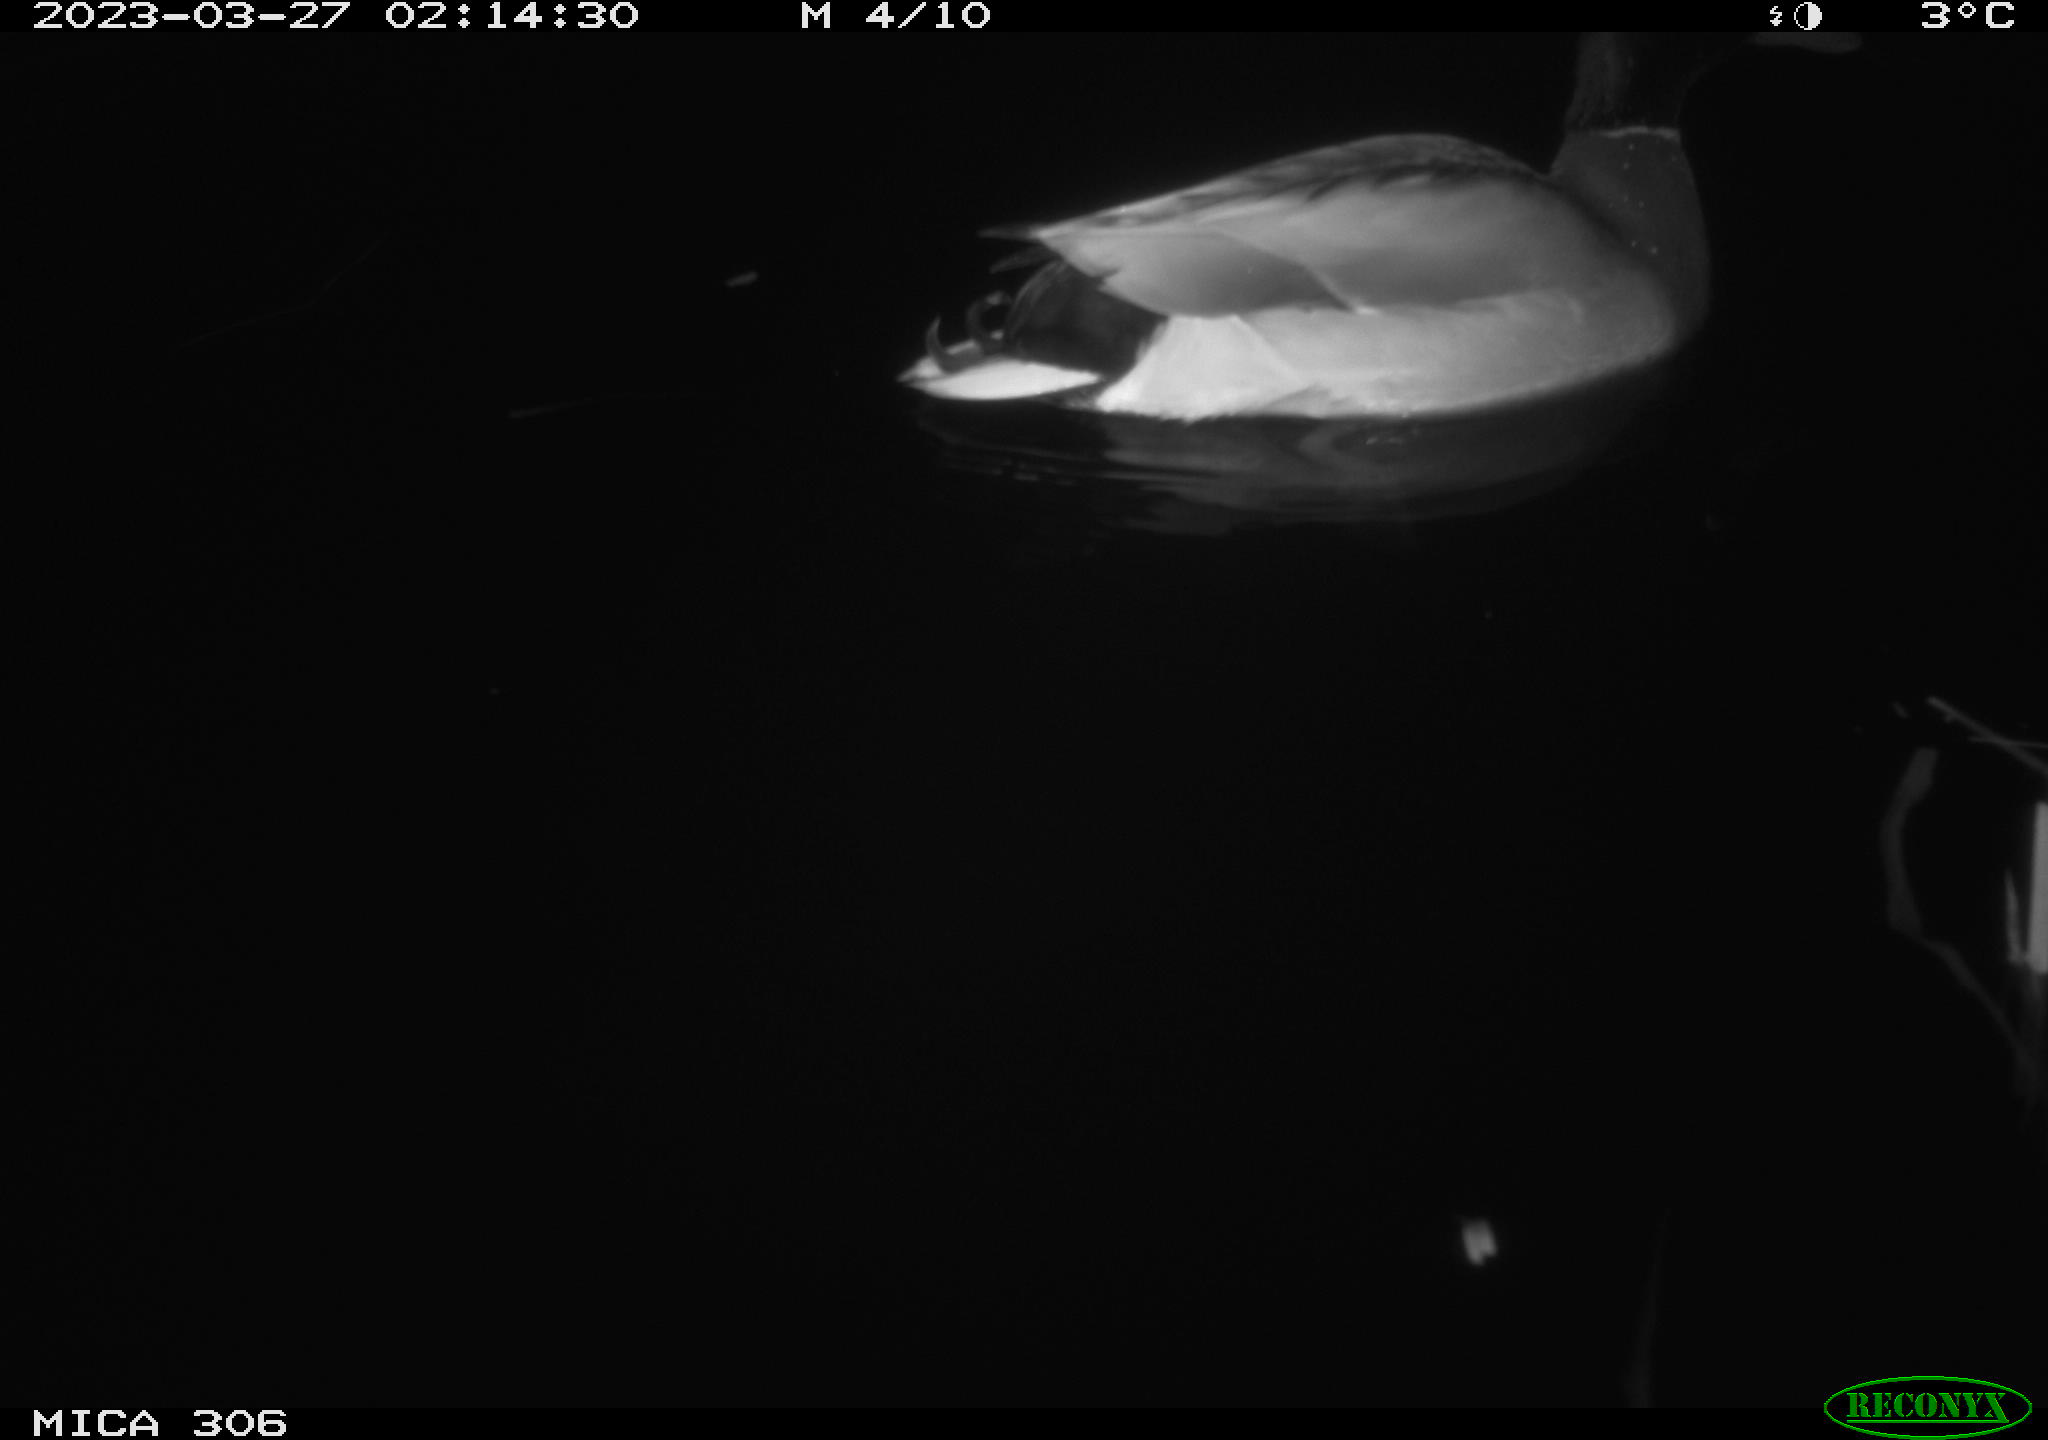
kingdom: Animalia
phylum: Chordata
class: Aves
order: Anseriformes
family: Anatidae
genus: Anas
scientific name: Anas
